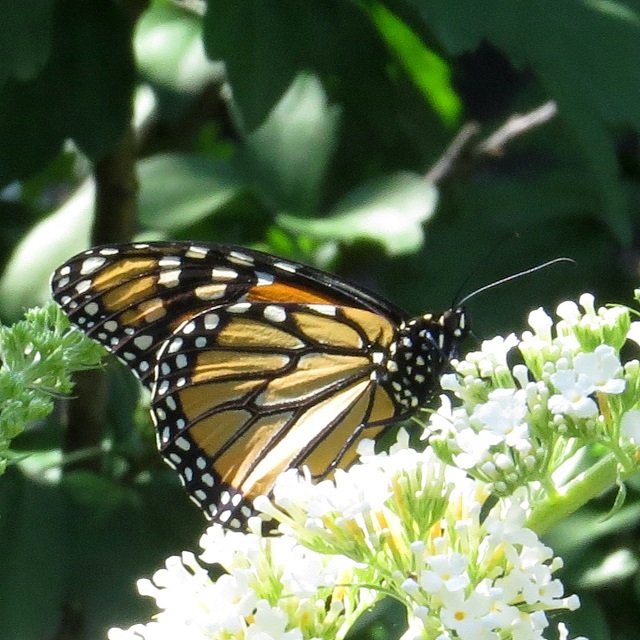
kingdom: Animalia
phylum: Arthropoda
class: Insecta
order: Lepidoptera
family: Nymphalidae
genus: Danaus
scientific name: Danaus plexippus
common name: Monarch
